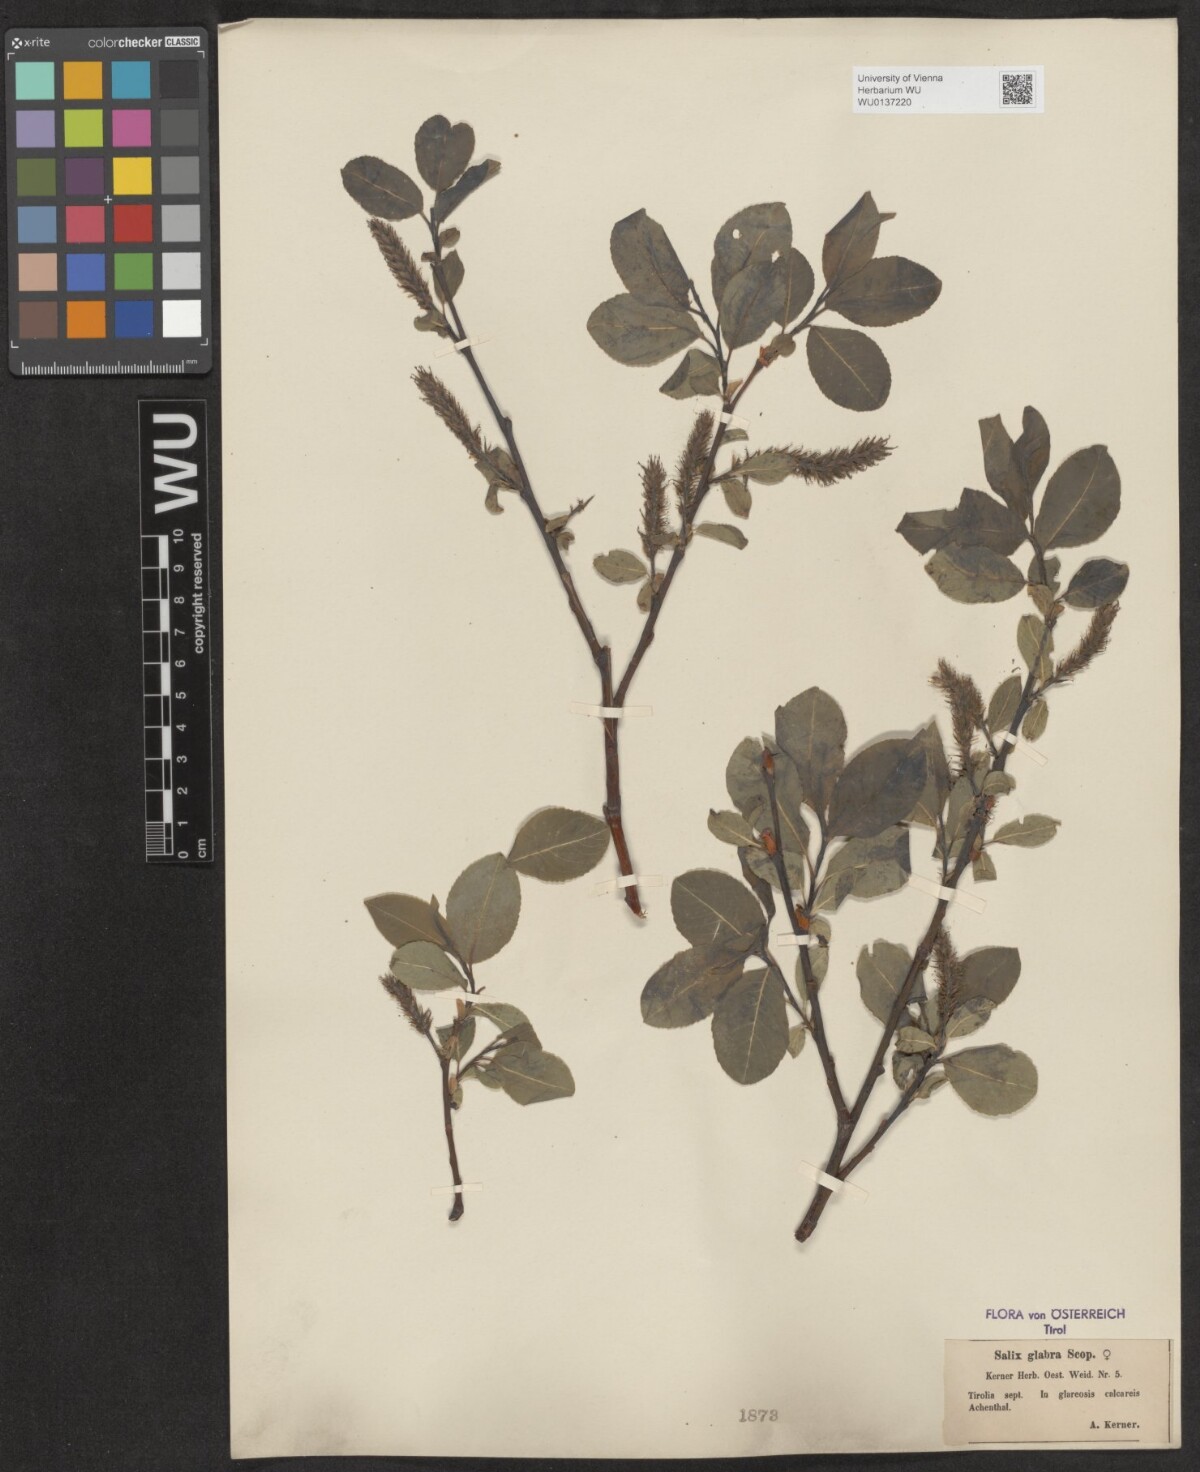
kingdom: Plantae
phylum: Tracheophyta
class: Magnoliopsida
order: Malpighiales
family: Salicaceae
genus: Salix
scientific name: Salix glabra
